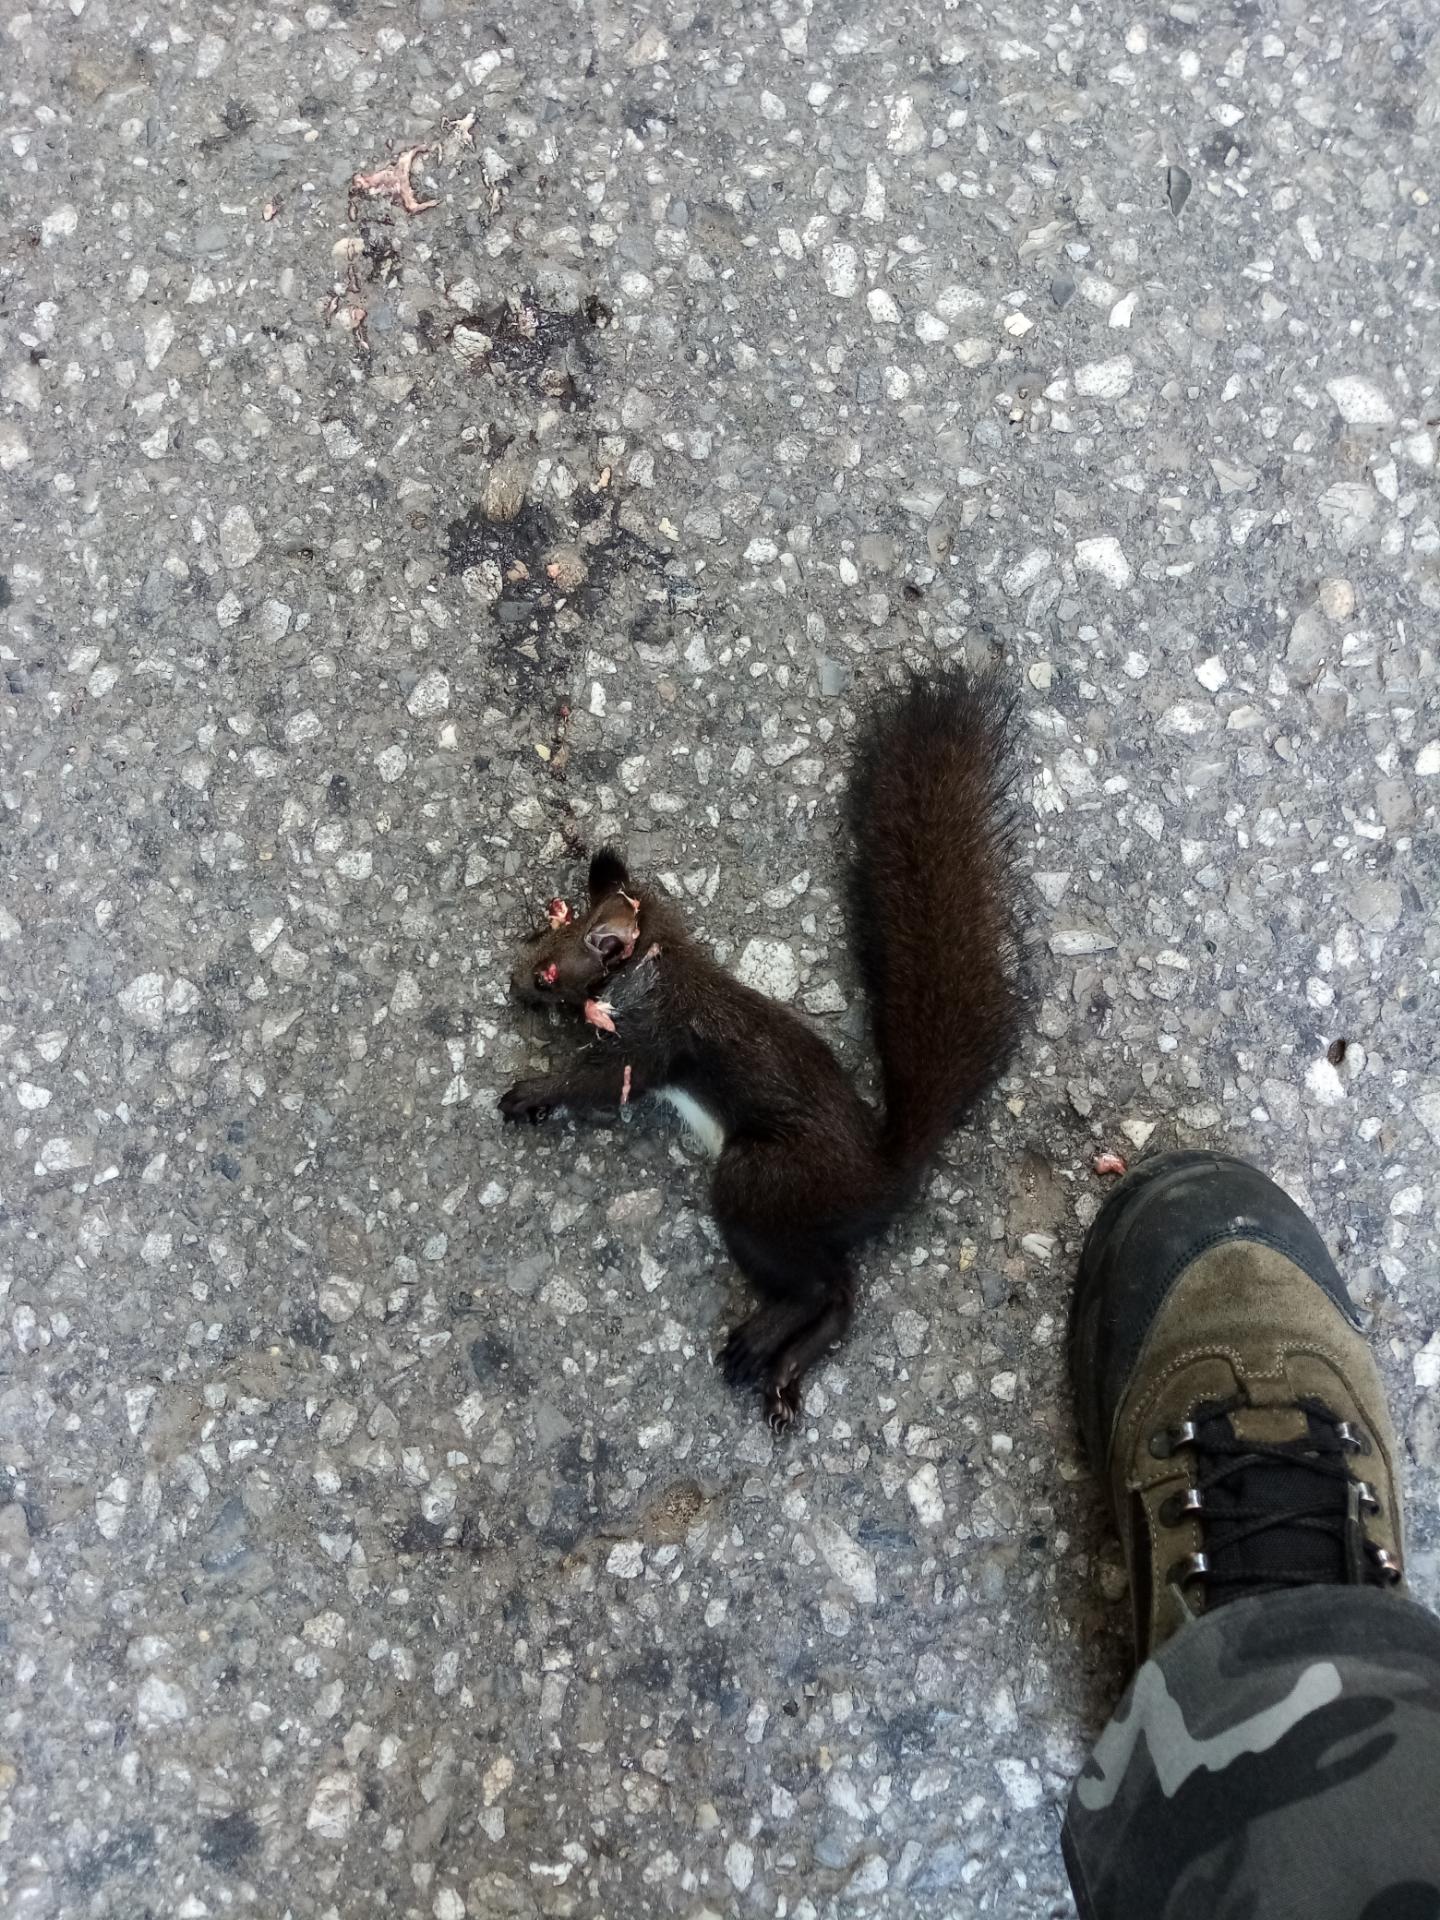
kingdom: Animalia
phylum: Chordata
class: Mammalia
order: Rodentia
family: Sciuridae
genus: Sciurus
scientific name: Sciurus vulgaris
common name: Eurasian red squirrel
